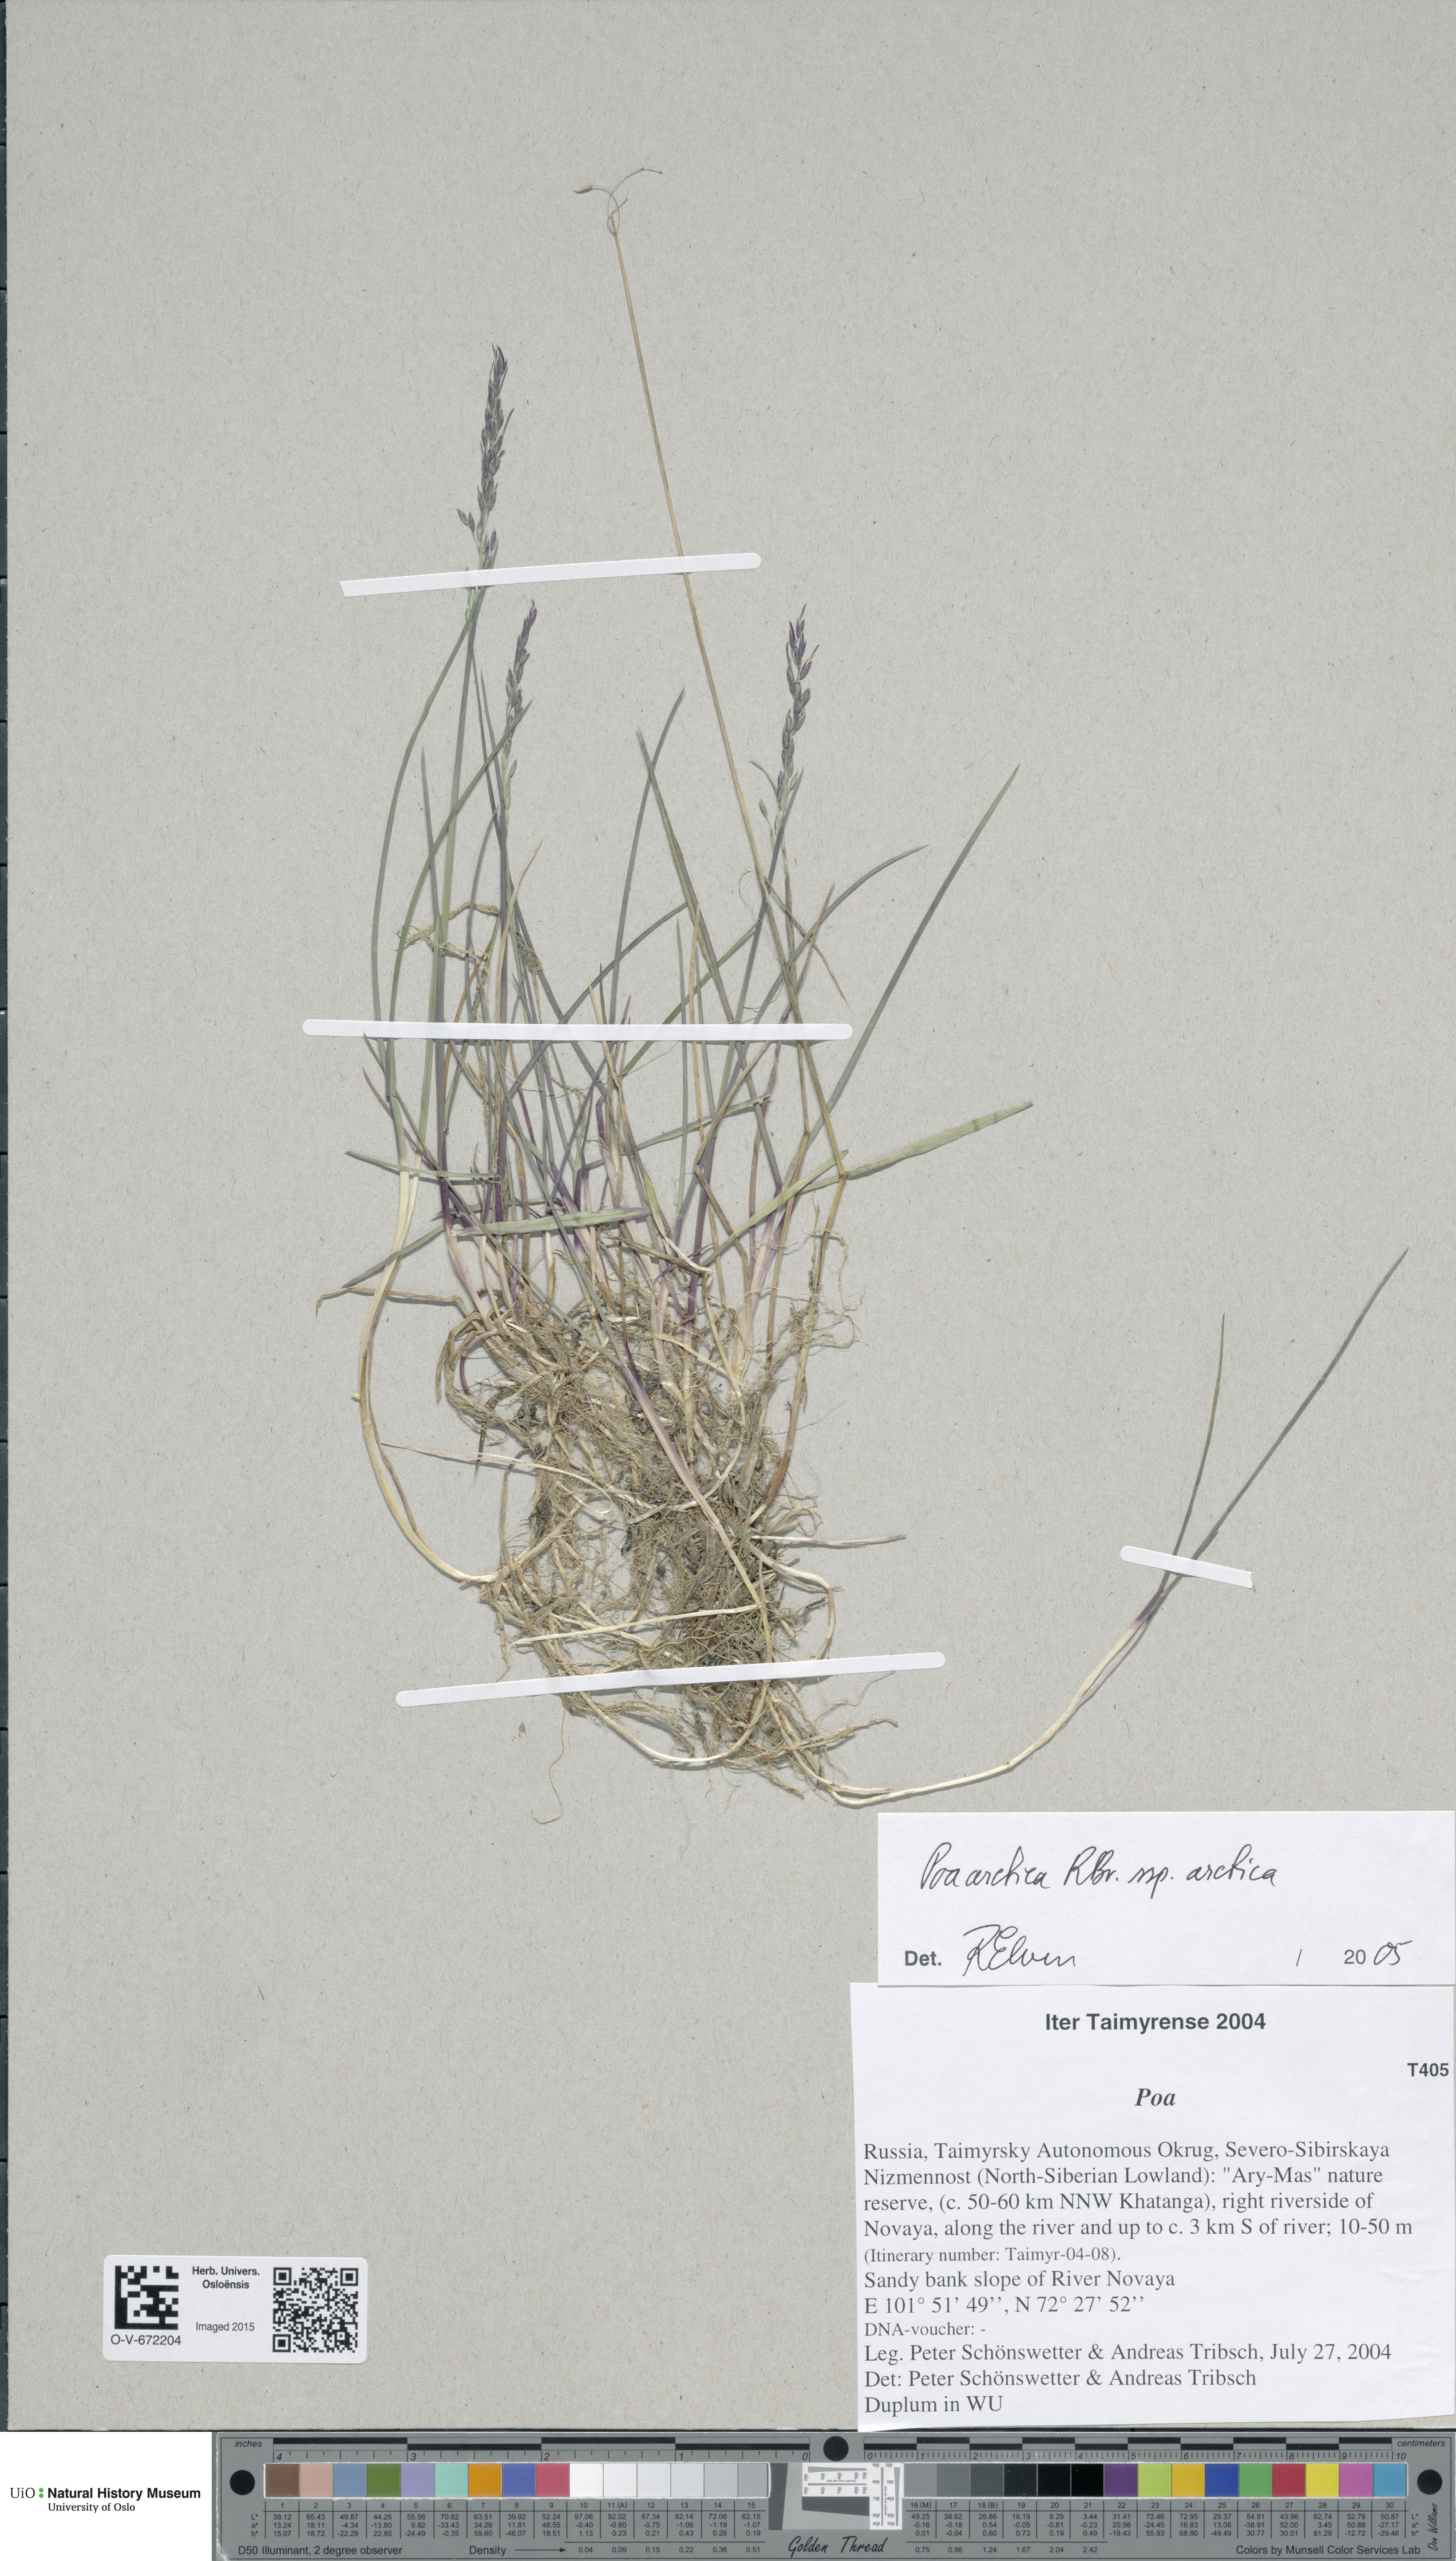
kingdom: Plantae
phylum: Tracheophyta
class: Liliopsida
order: Poales
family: Poaceae
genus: Poa
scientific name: Poa arctica
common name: Arctic bluegrass
